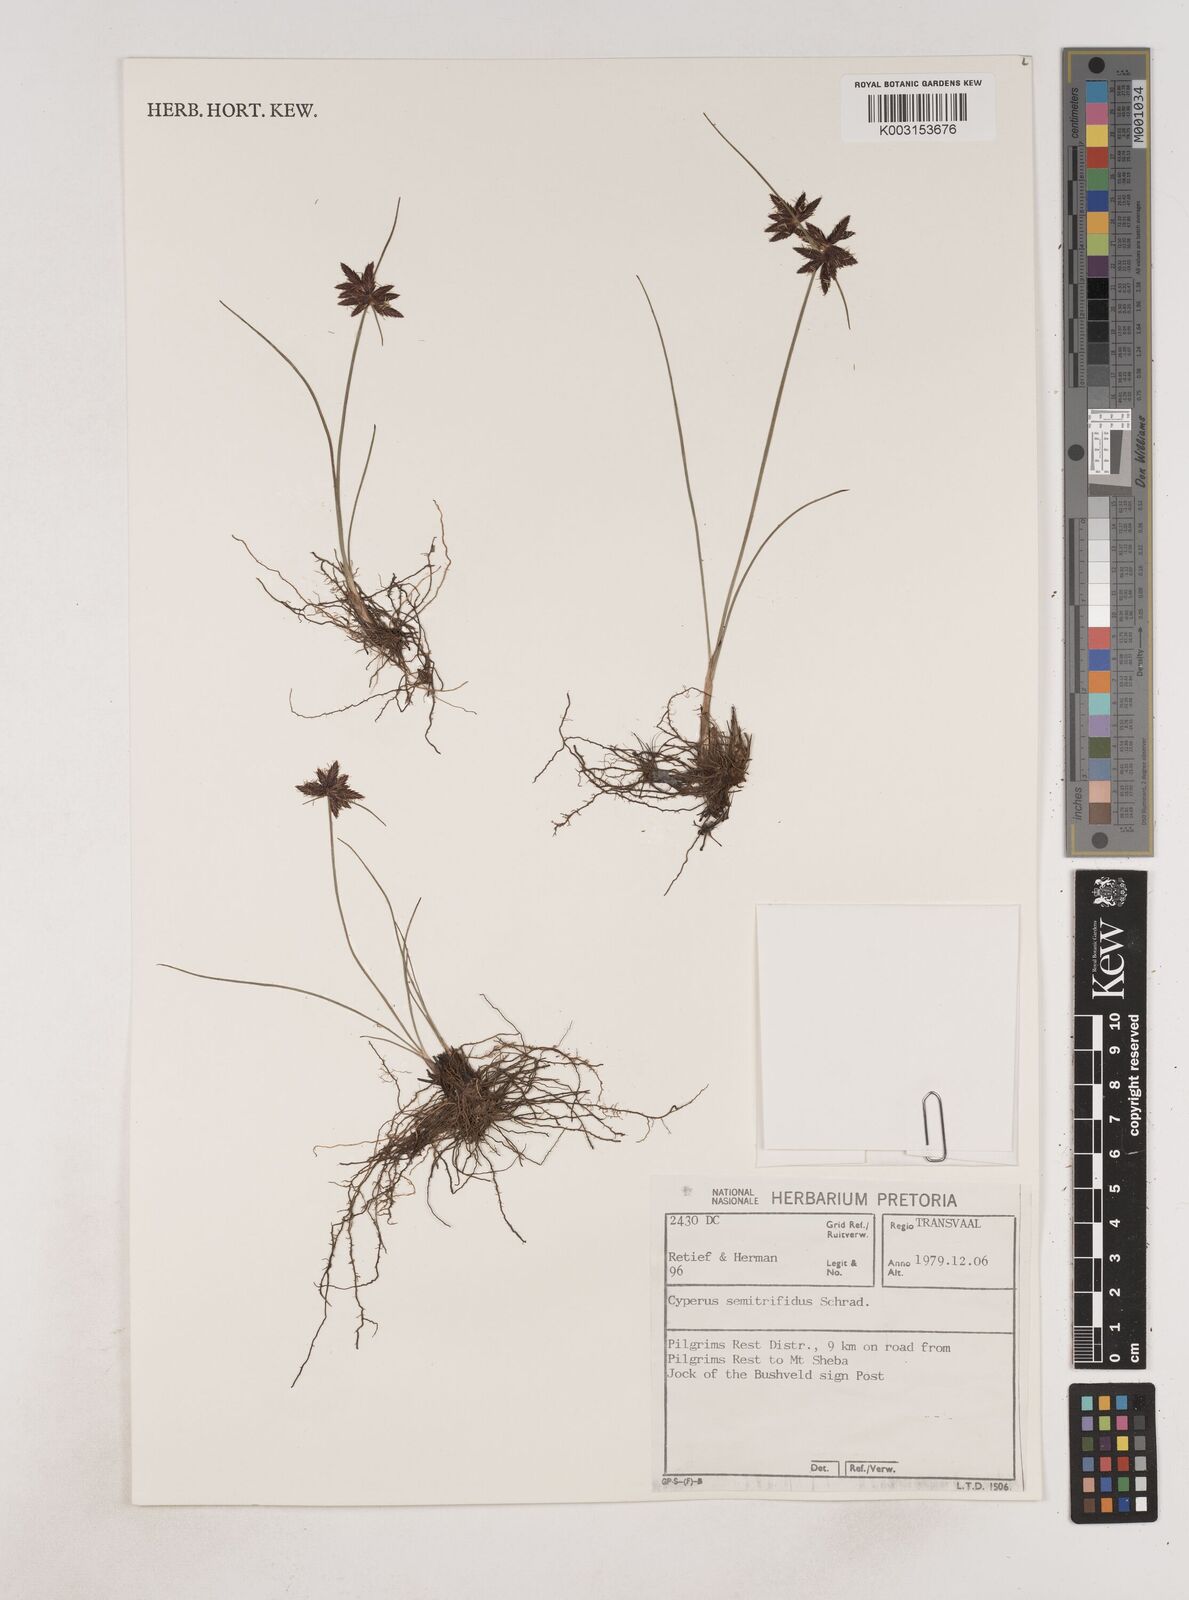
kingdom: Plantae
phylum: Tracheophyta
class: Liliopsida
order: Poales
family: Cyperaceae
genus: Cyperus
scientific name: Cyperus semitrifidus
